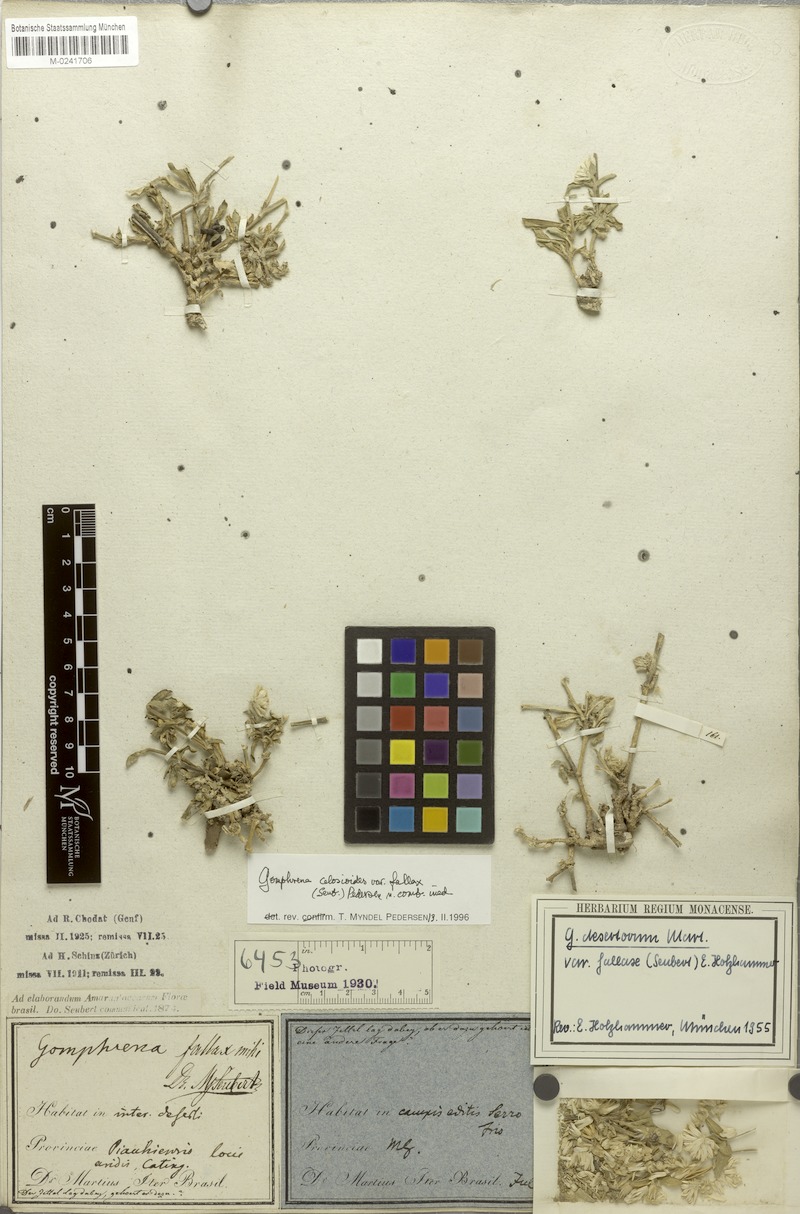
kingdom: Plantae
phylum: Tracheophyta
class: Magnoliopsida
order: Caryophyllales
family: Amaranthaceae
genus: Gomphrena
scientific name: Gomphrena celosioides
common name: Gomphrena-weed
